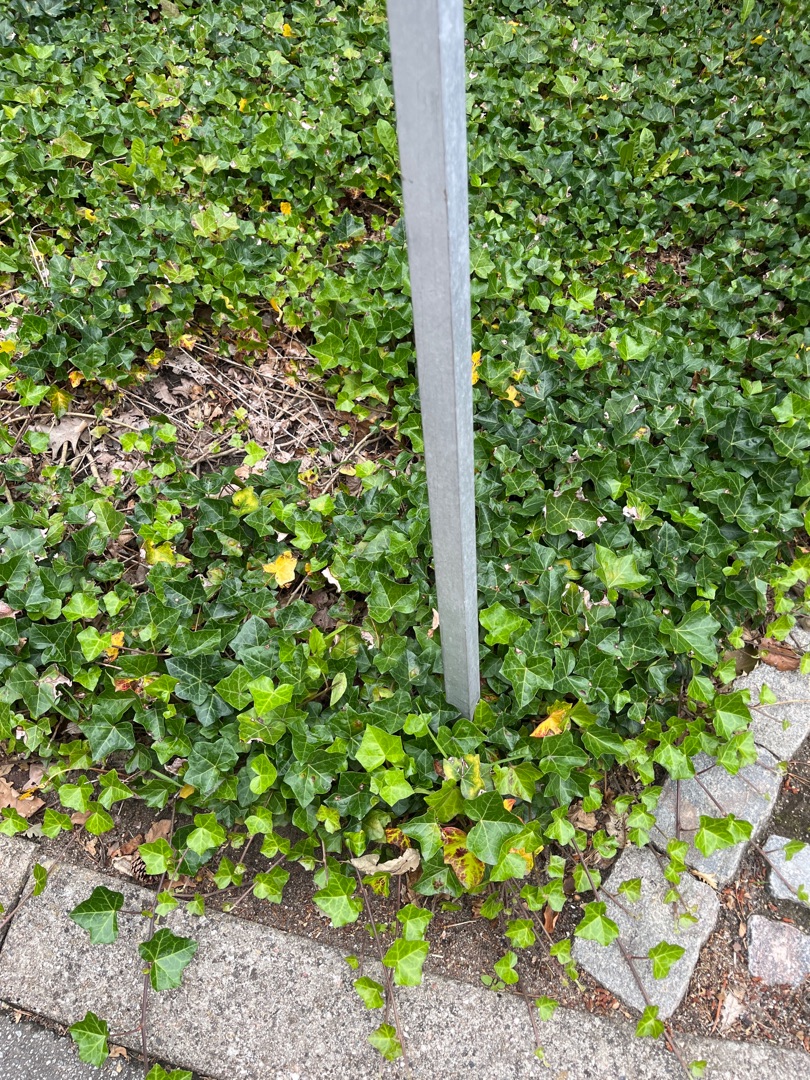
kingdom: Plantae
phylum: Tracheophyta
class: Magnoliopsida
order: Apiales
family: Araliaceae
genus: Hedera
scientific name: Hedera helix
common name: Vedbend
